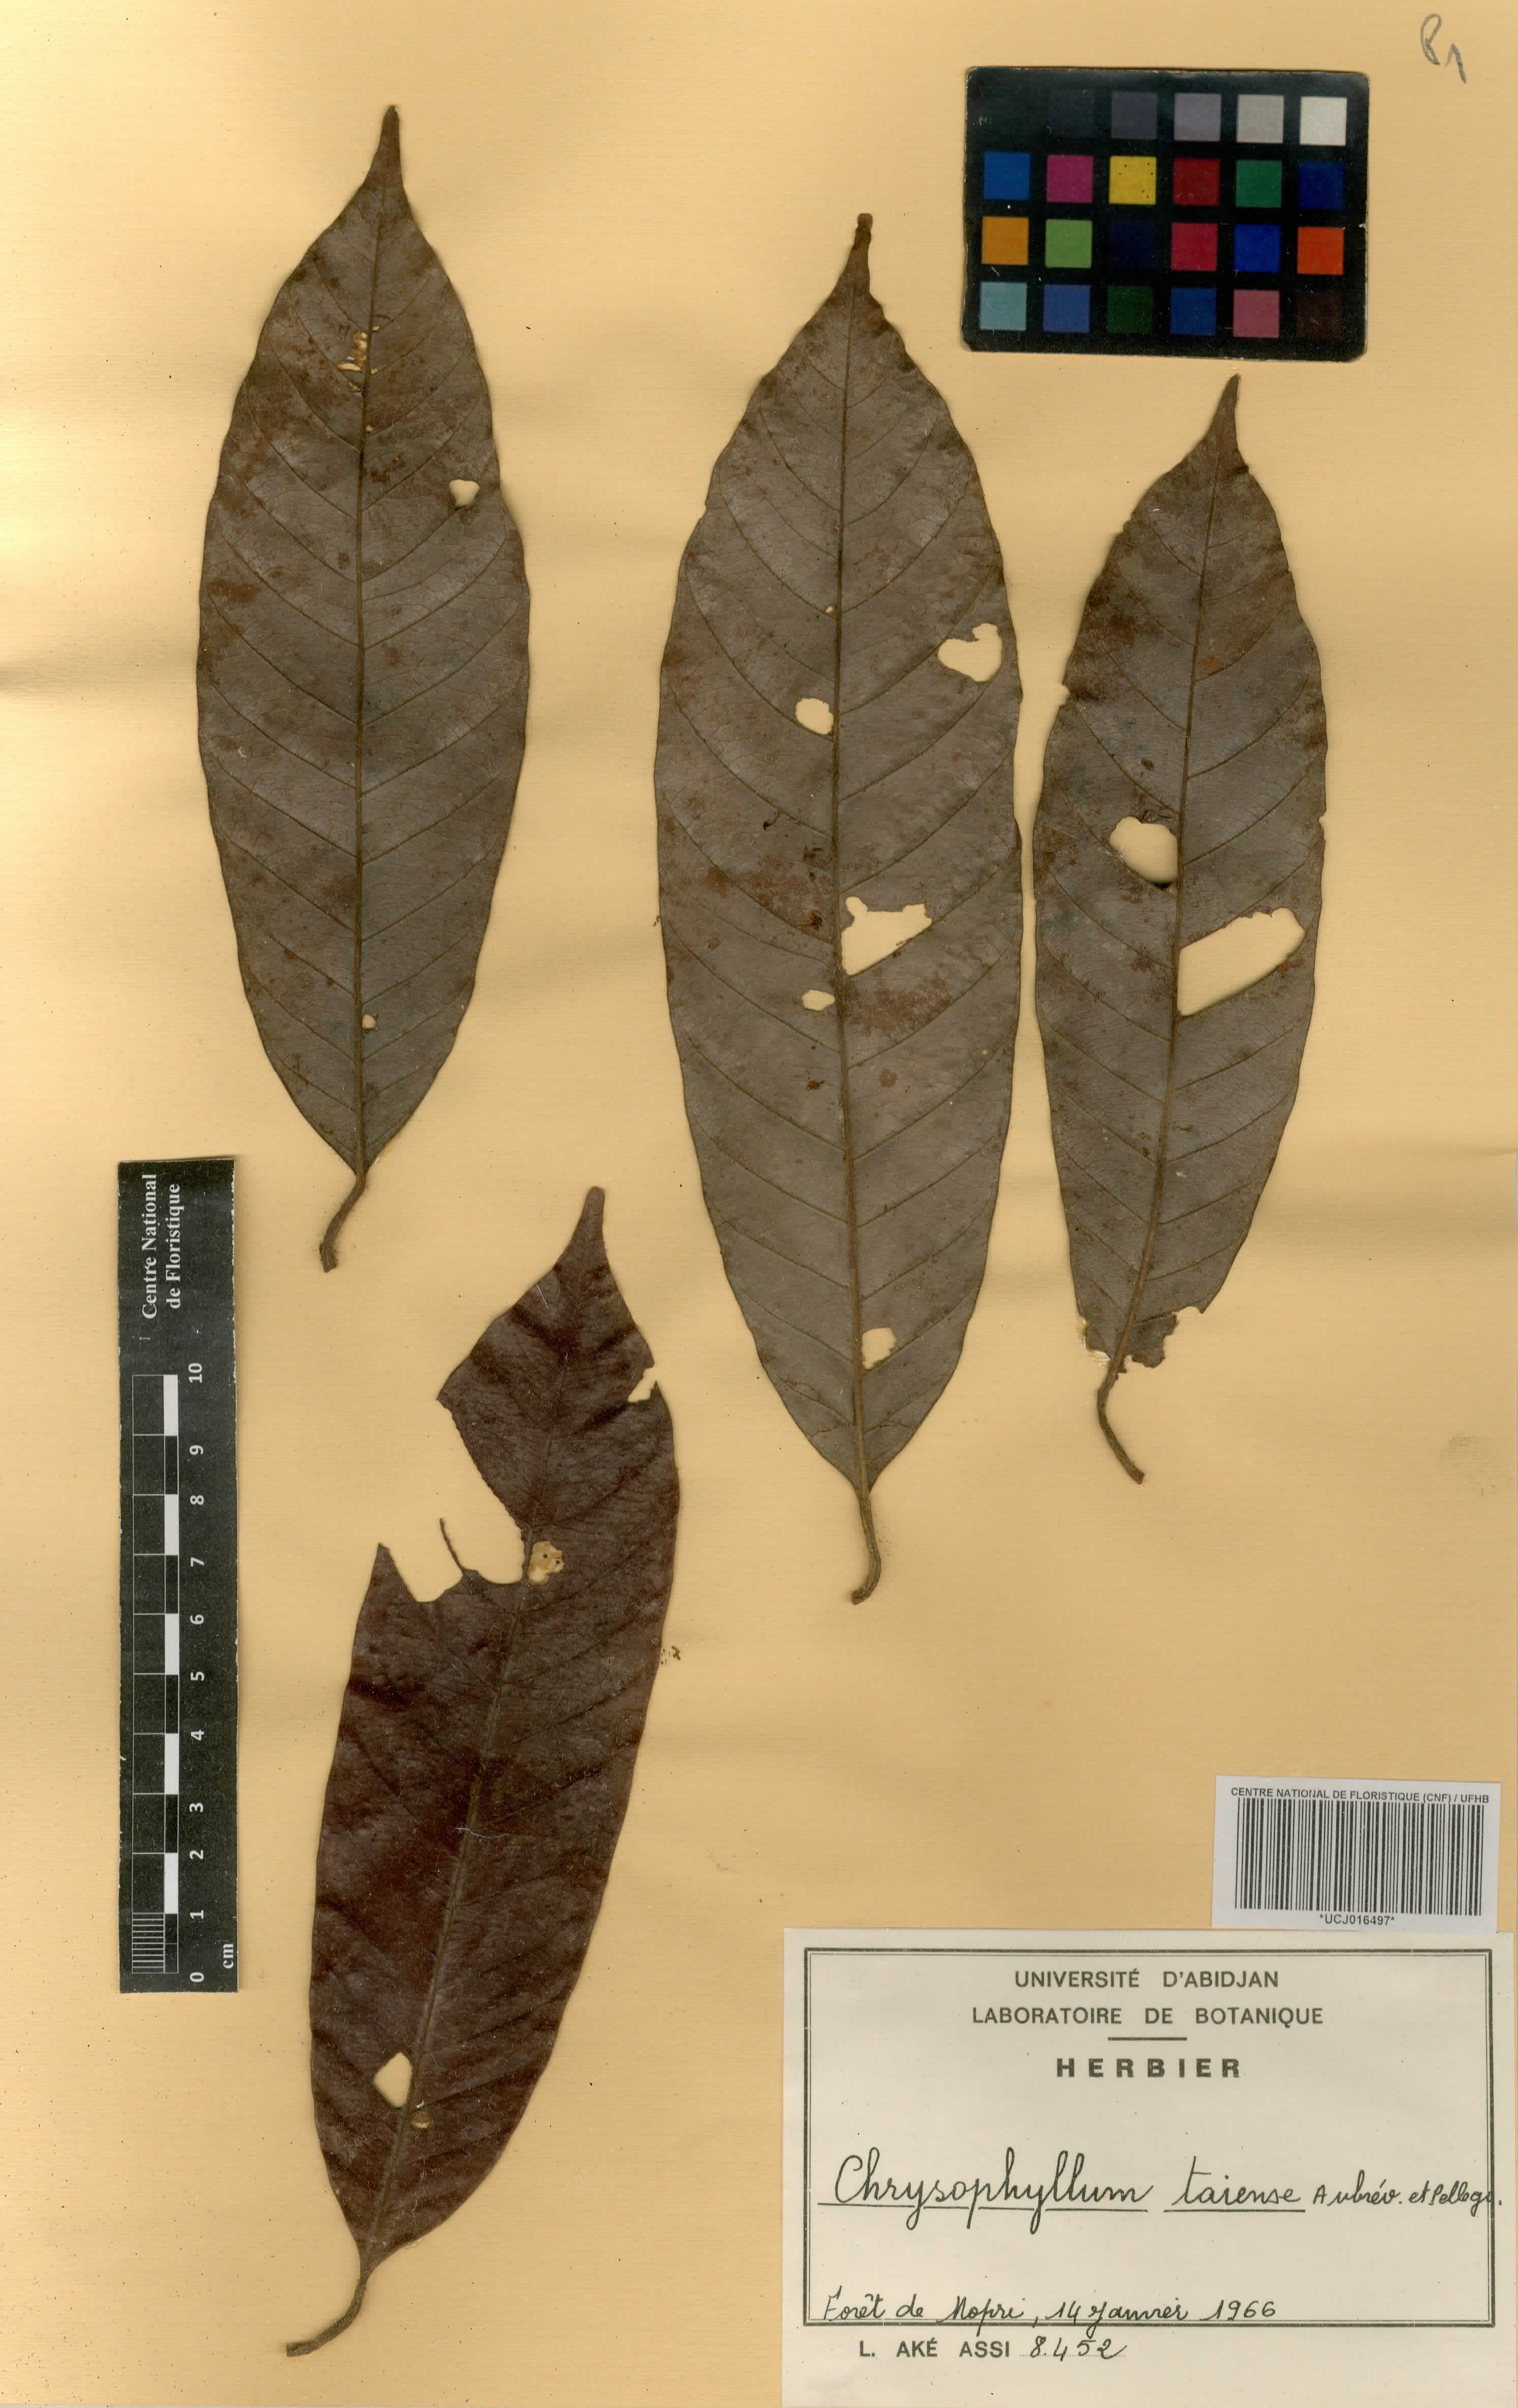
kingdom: Plantae
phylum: Tracheophyta
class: Magnoliopsida
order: Ericales
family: Sapotaceae
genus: Gambeya
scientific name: Gambeya taiensis
